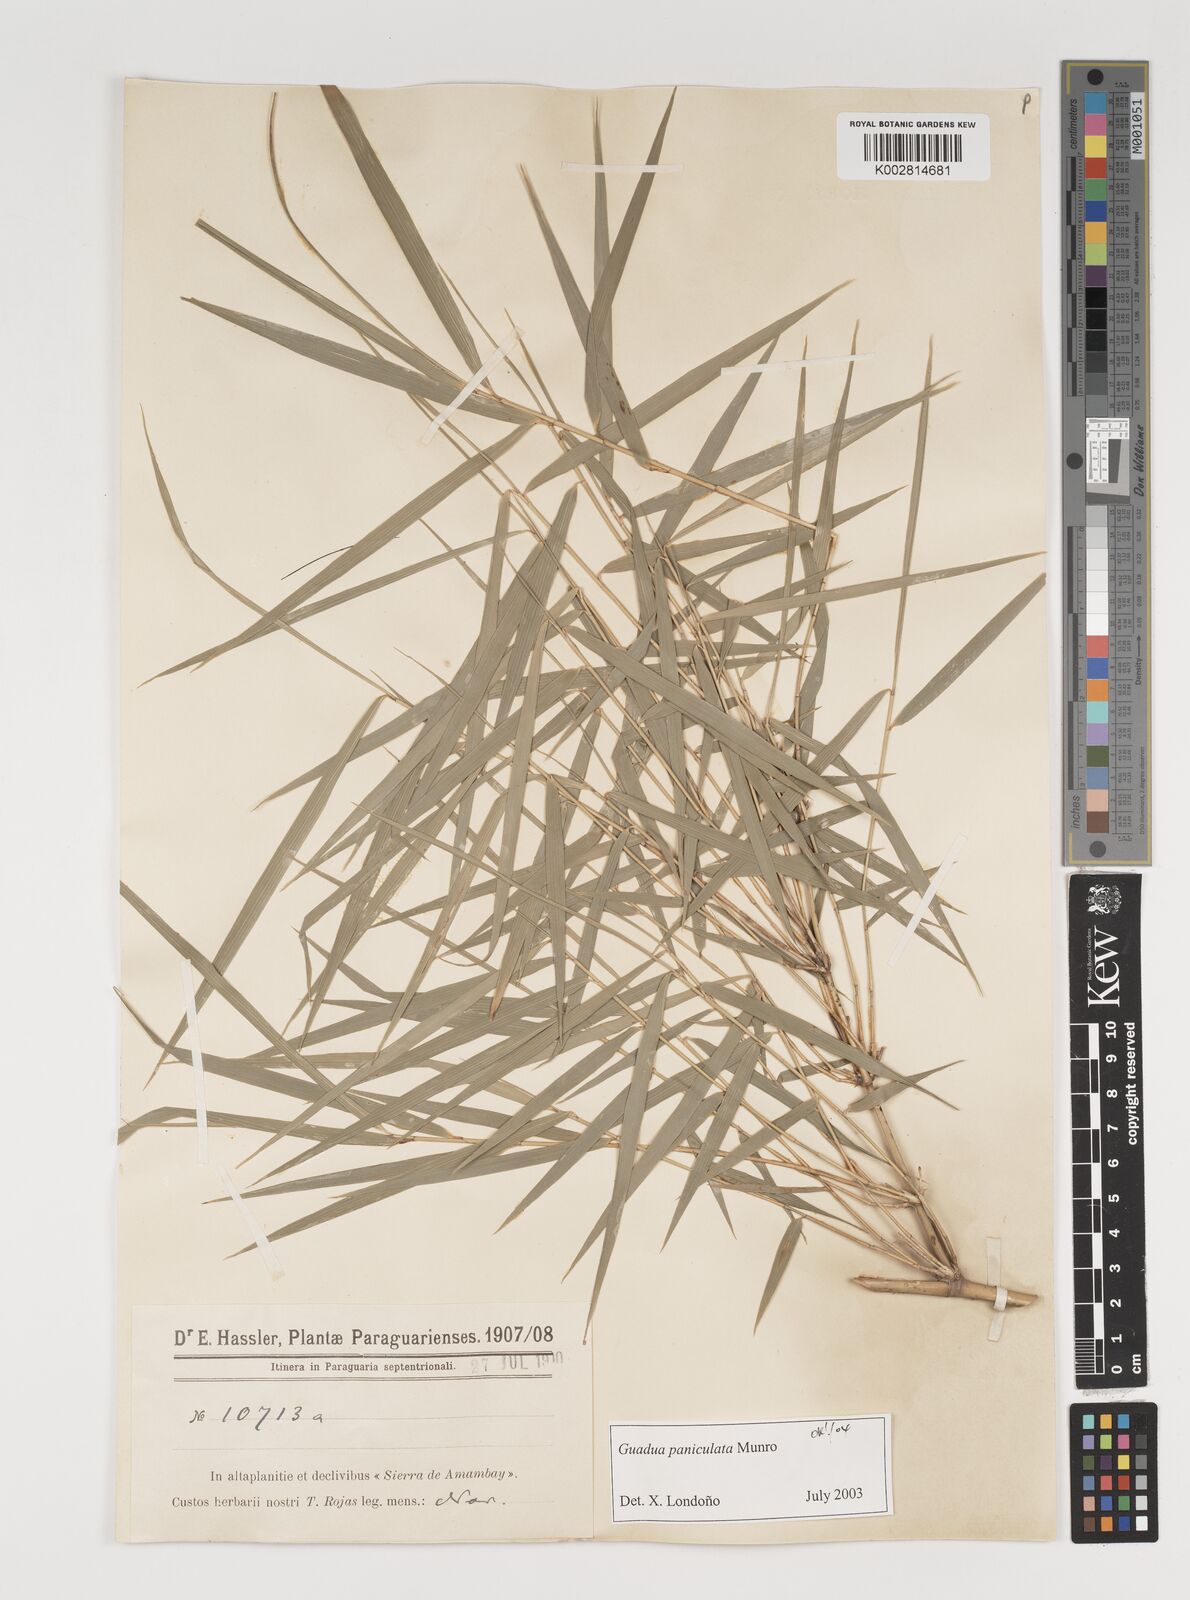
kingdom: Plantae
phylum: Tracheophyta
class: Liliopsida
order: Poales
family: Poaceae
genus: Guadua
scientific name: Guadua paniculata
